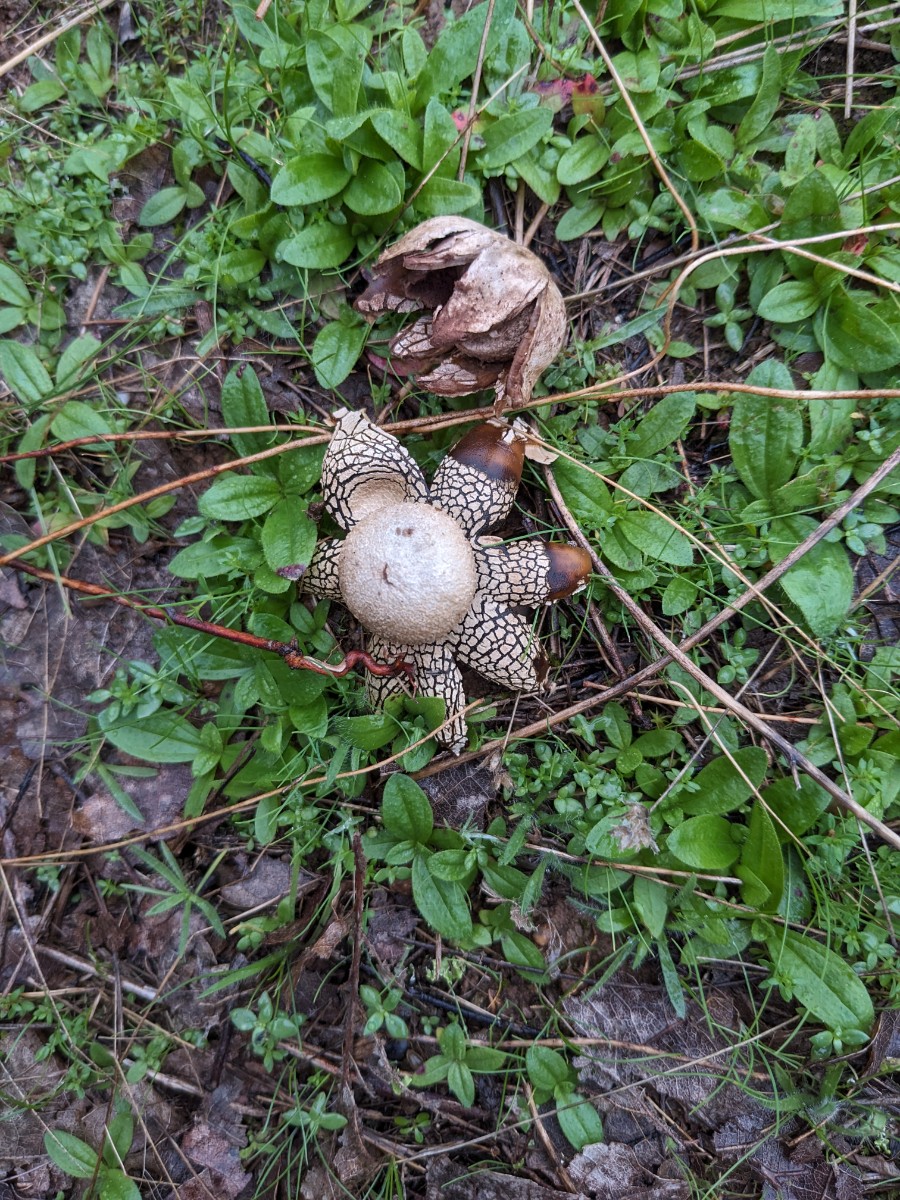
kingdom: Fungi
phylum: Basidiomycota
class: Agaricomycetes
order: Boletales
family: Diplocystidiaceae
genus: Astraeus
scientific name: Astraeus
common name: hygrometerstjerne
